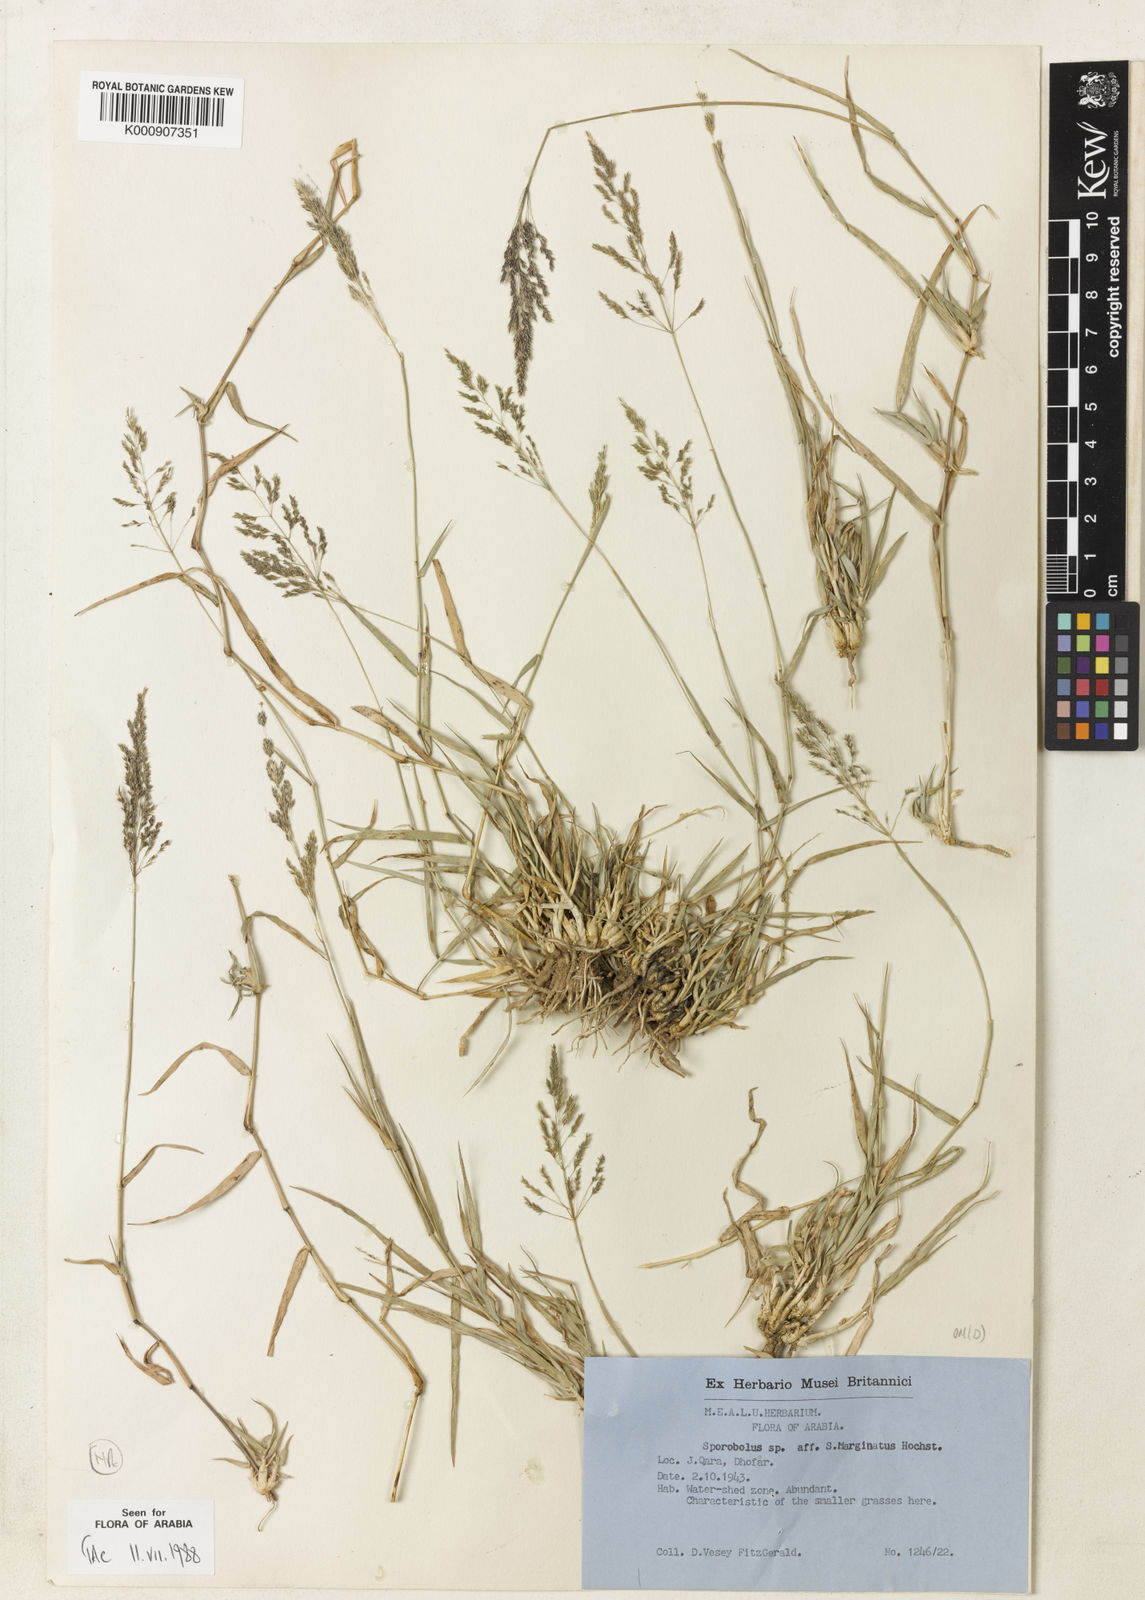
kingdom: Plantae
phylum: Tracheophyta
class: Liliopsida
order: Poales
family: Poaceae
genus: Sporobolus
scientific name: Sporobolus gloeoclados
